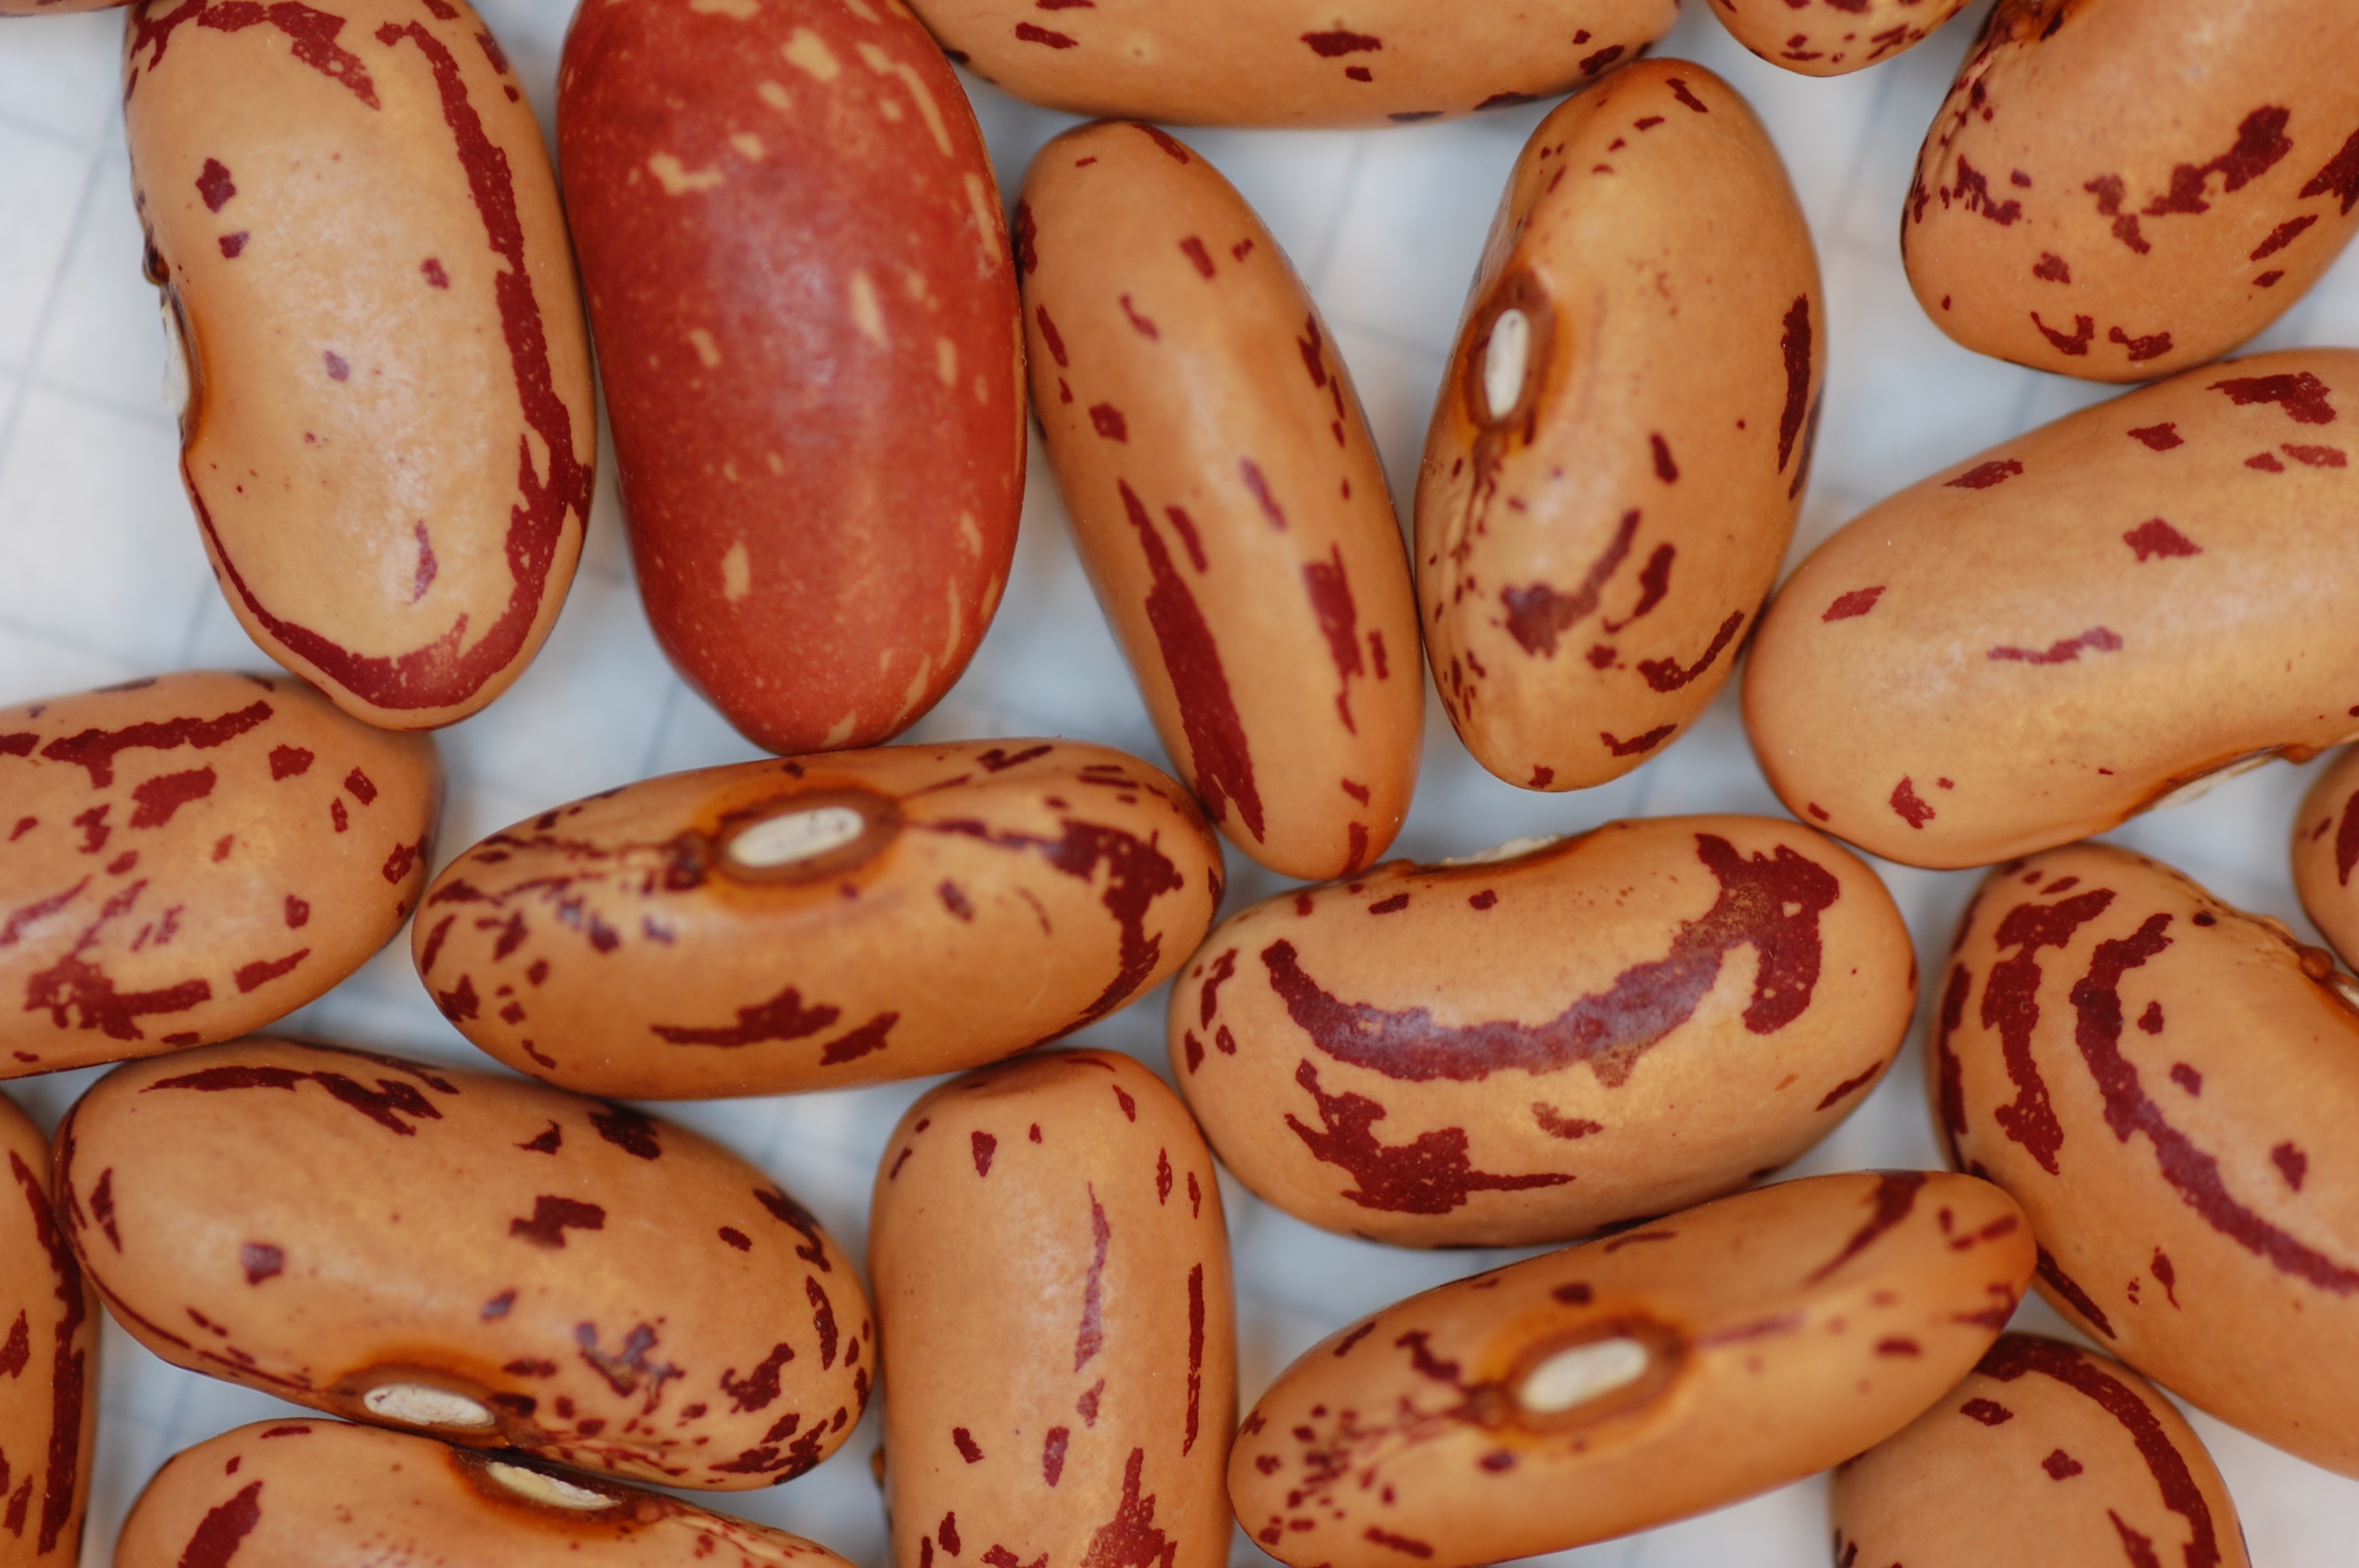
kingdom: Plantae
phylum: Tracheophyta
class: Magnoliopsida
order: Fabales
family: Fabaceae
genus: Phaseolus
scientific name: Phaseolus vulgaris
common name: Bean
